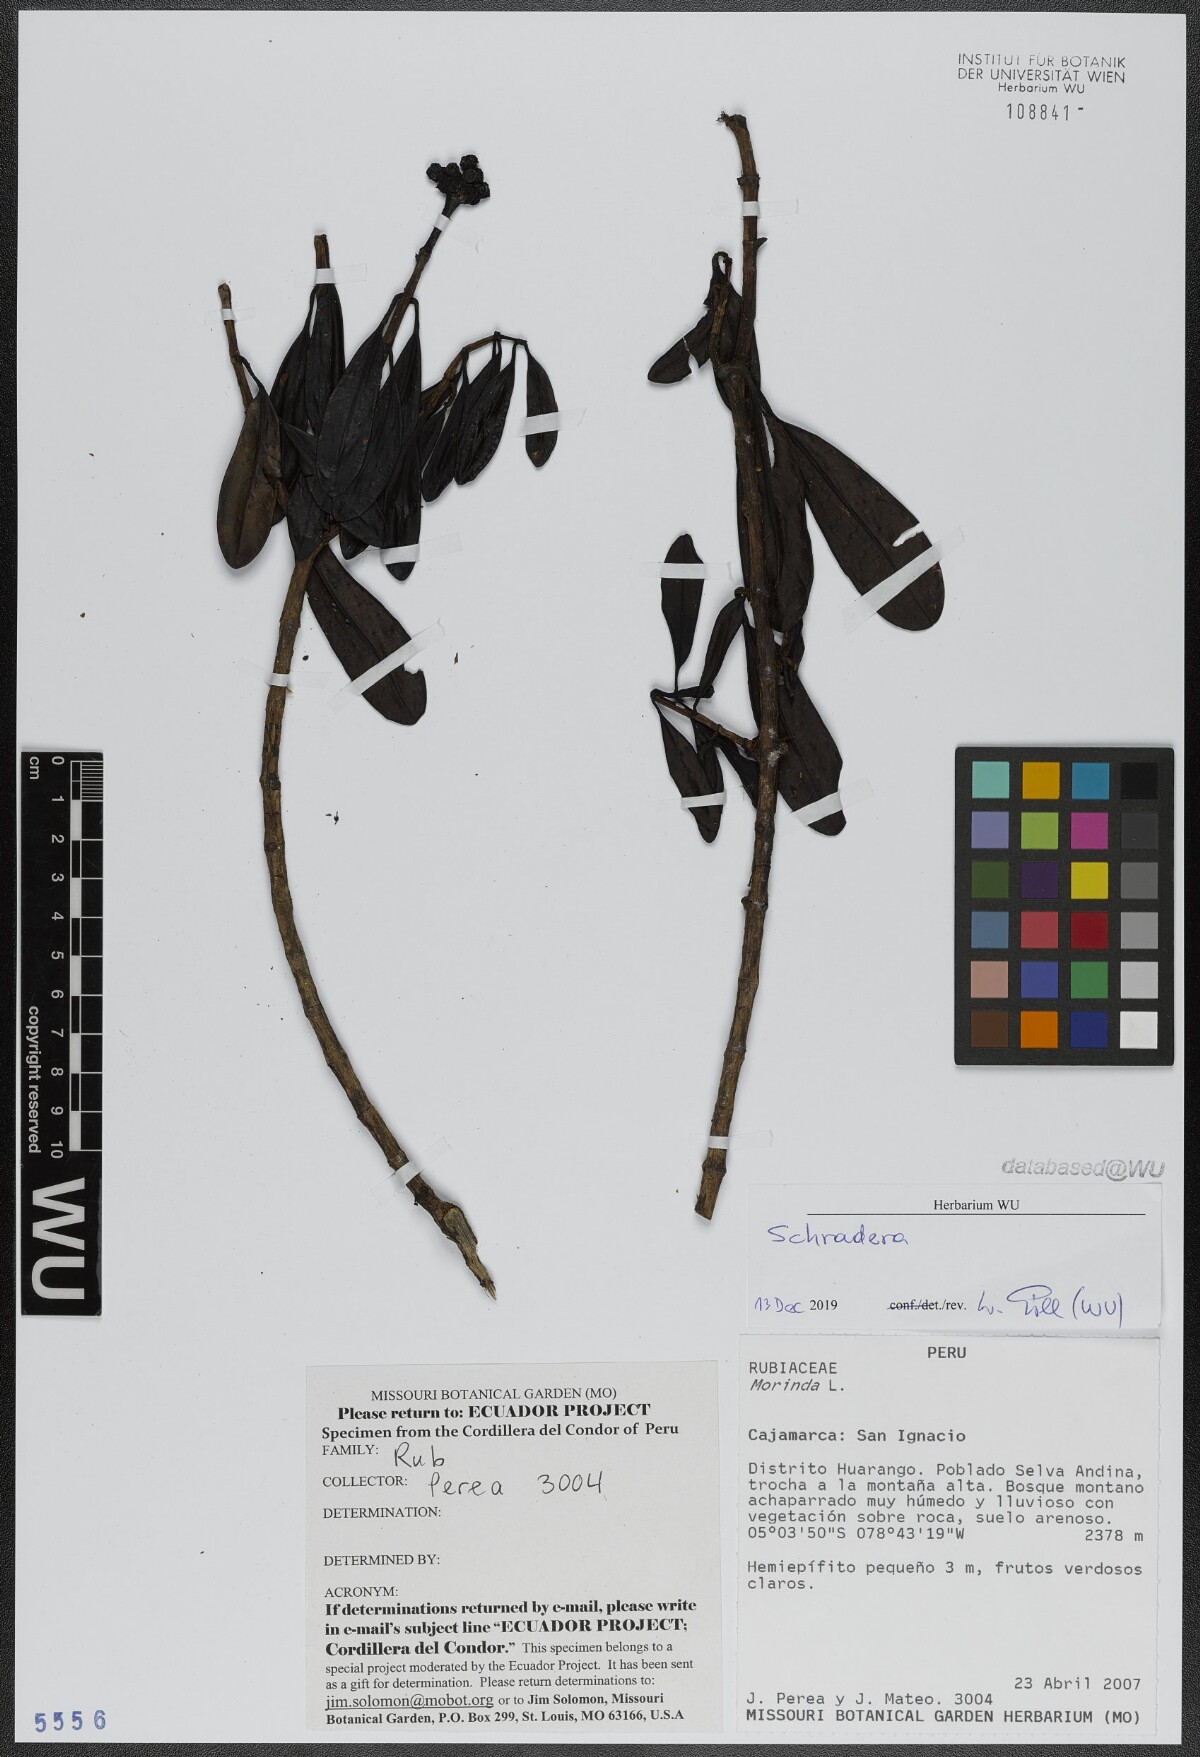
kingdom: Plantae
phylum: Tracheophyta
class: Magnoliopsida
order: Gentianales
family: Rubiaceae
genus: Schradera
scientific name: Schradera
